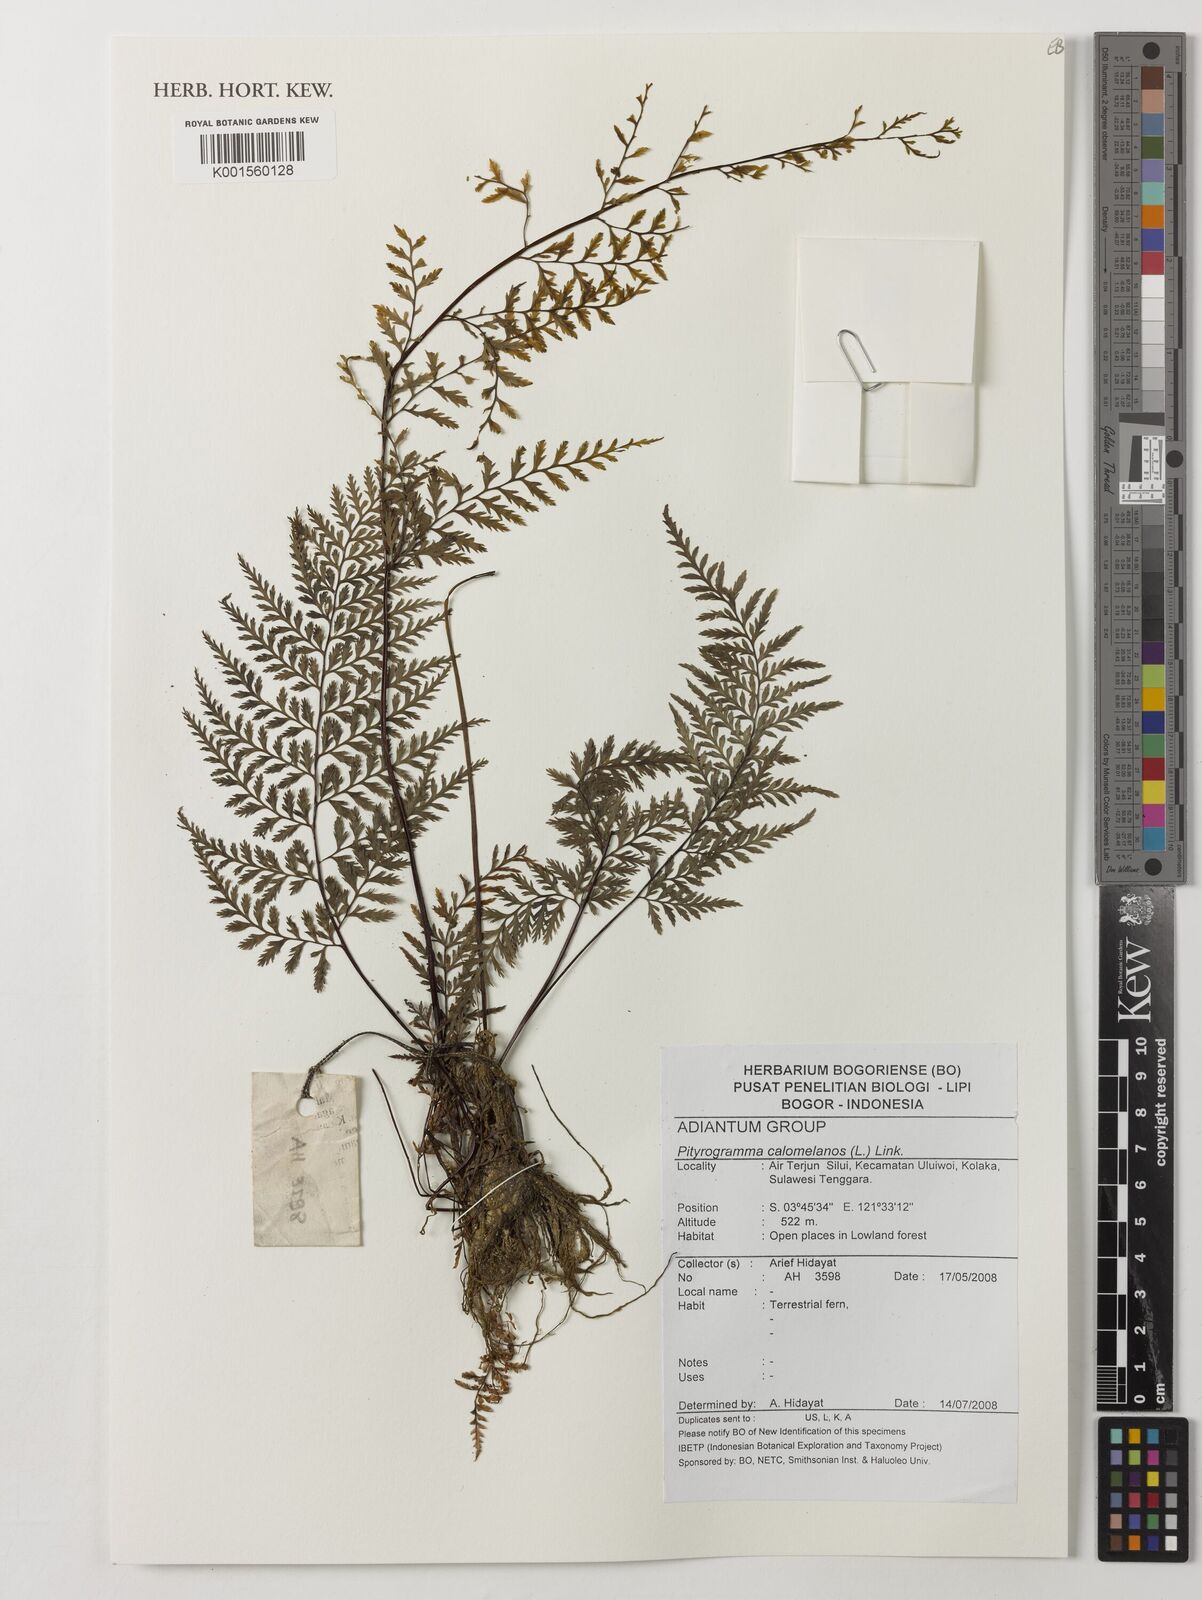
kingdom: Plantae
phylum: Tracheophyta
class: Polypodiopsida
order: Polypodiales
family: Pteridaceae
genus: Pityrogramma
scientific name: Pityrogramma calomelanos
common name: Dixie silverback fern
